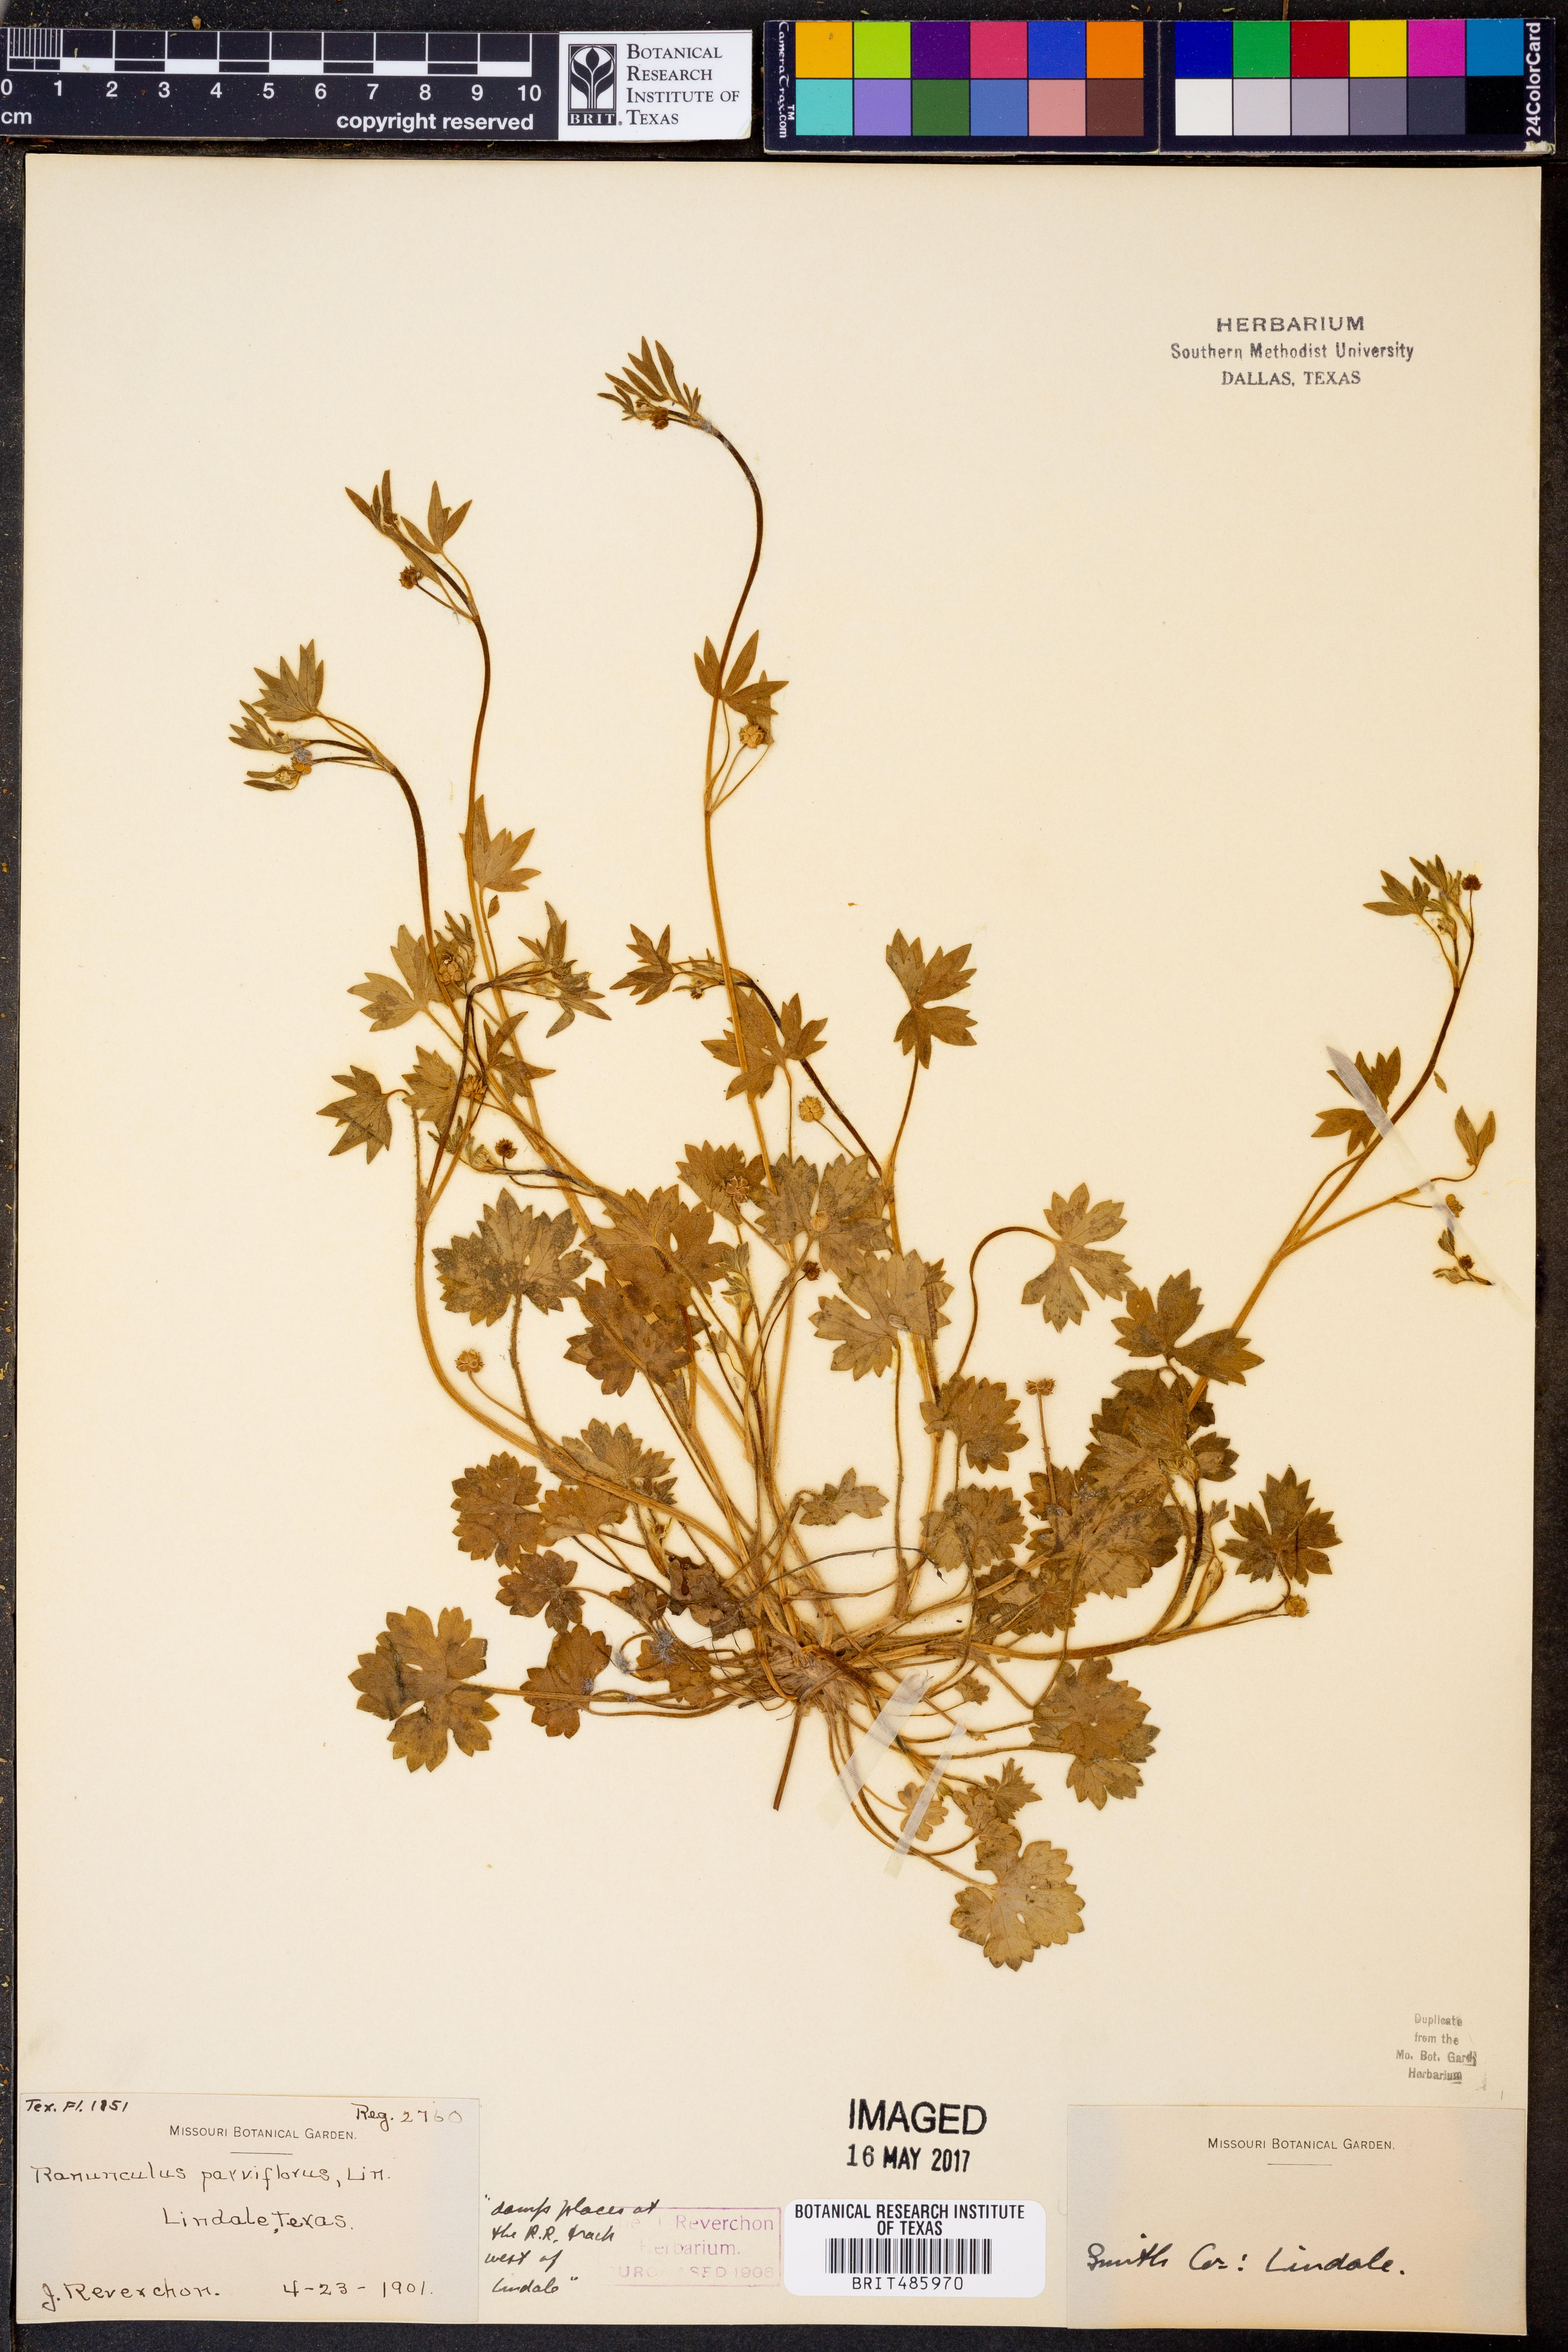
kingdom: Plantae
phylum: Tracheophyta
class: Magnoliopsida
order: Ranunculales
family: Ranunculaceae
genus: Ranunculus
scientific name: Ranunculus parviflorus
